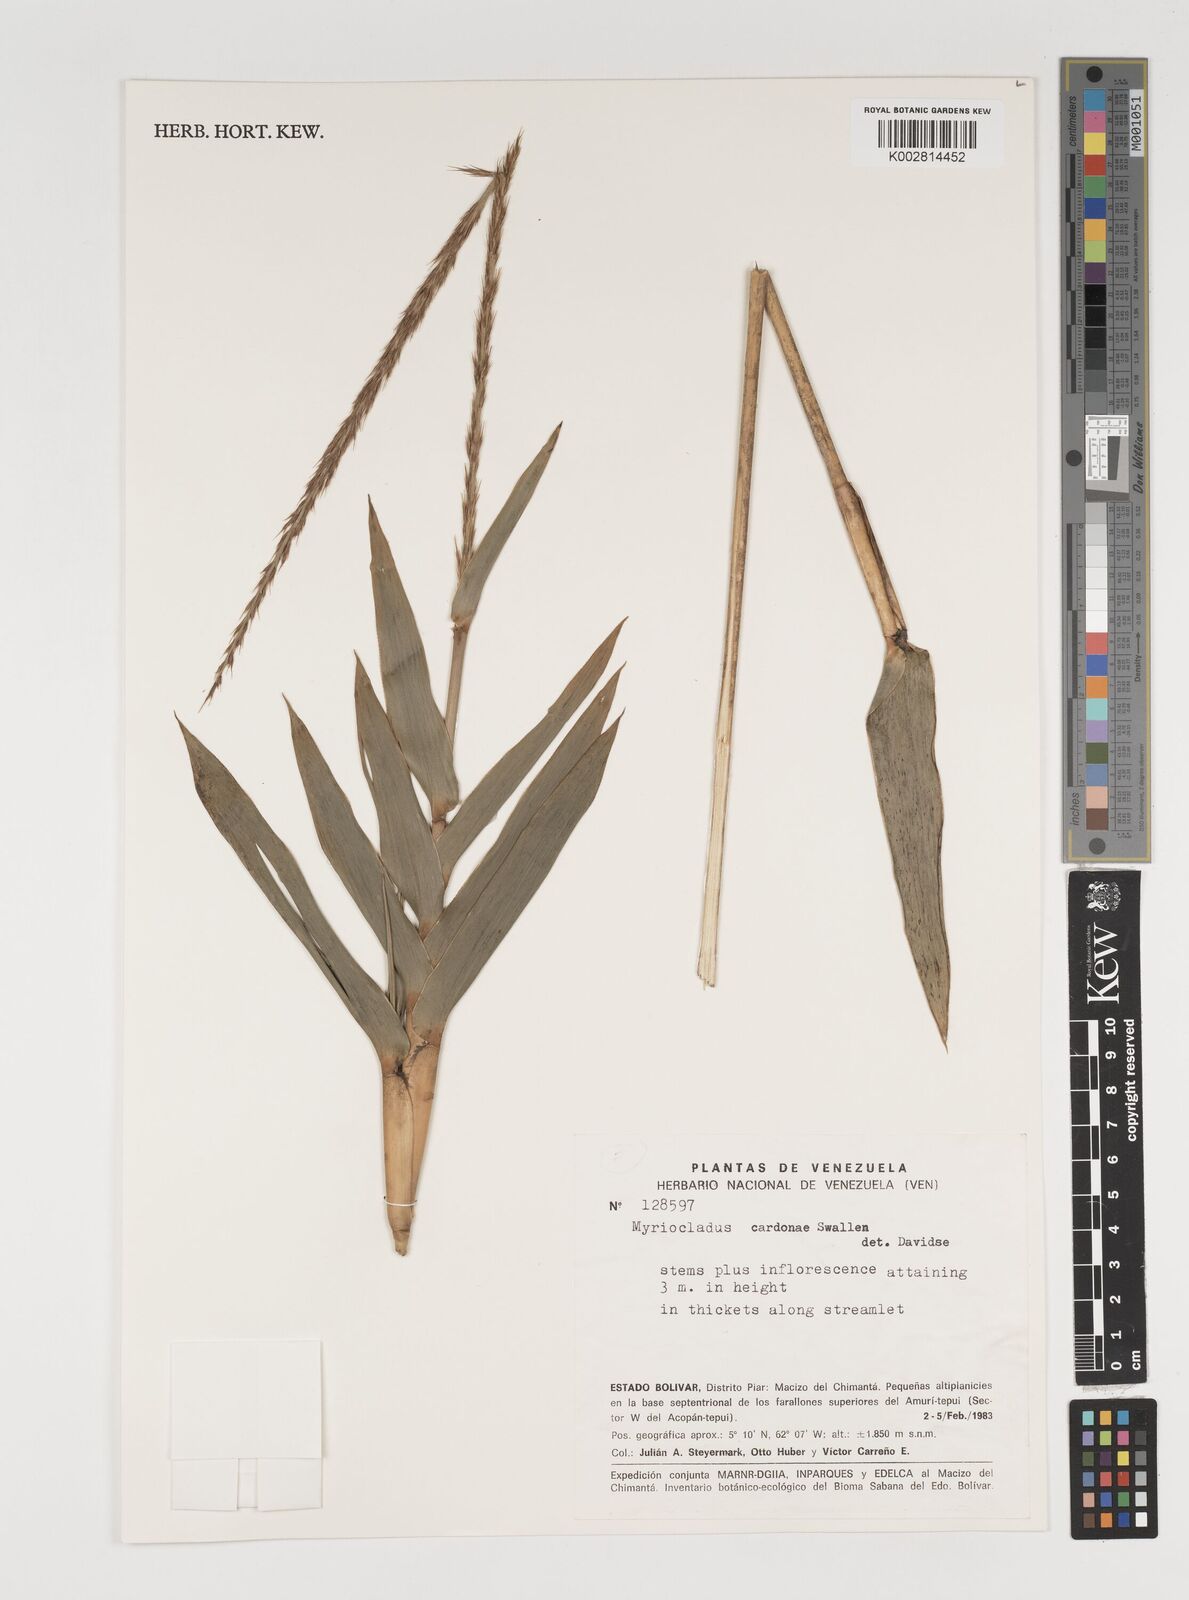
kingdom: Plantae
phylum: Tracheophyta
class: Liliopsida
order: Poales
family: Poaceae
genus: Myriocladus
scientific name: Myriocladus cardonae
